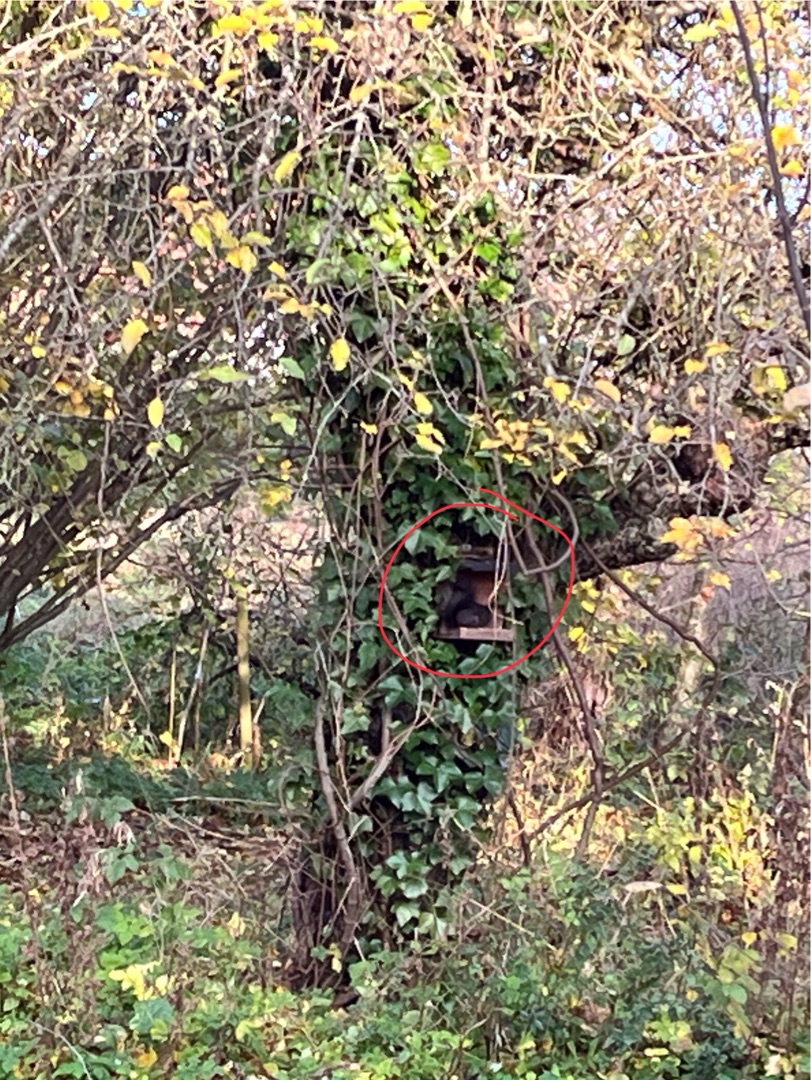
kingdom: Animalia
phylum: Chordata
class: Mammalia
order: Rodentia
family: Sciuridae
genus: Sciurus
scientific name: Sciurus vulgaris
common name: Egern
